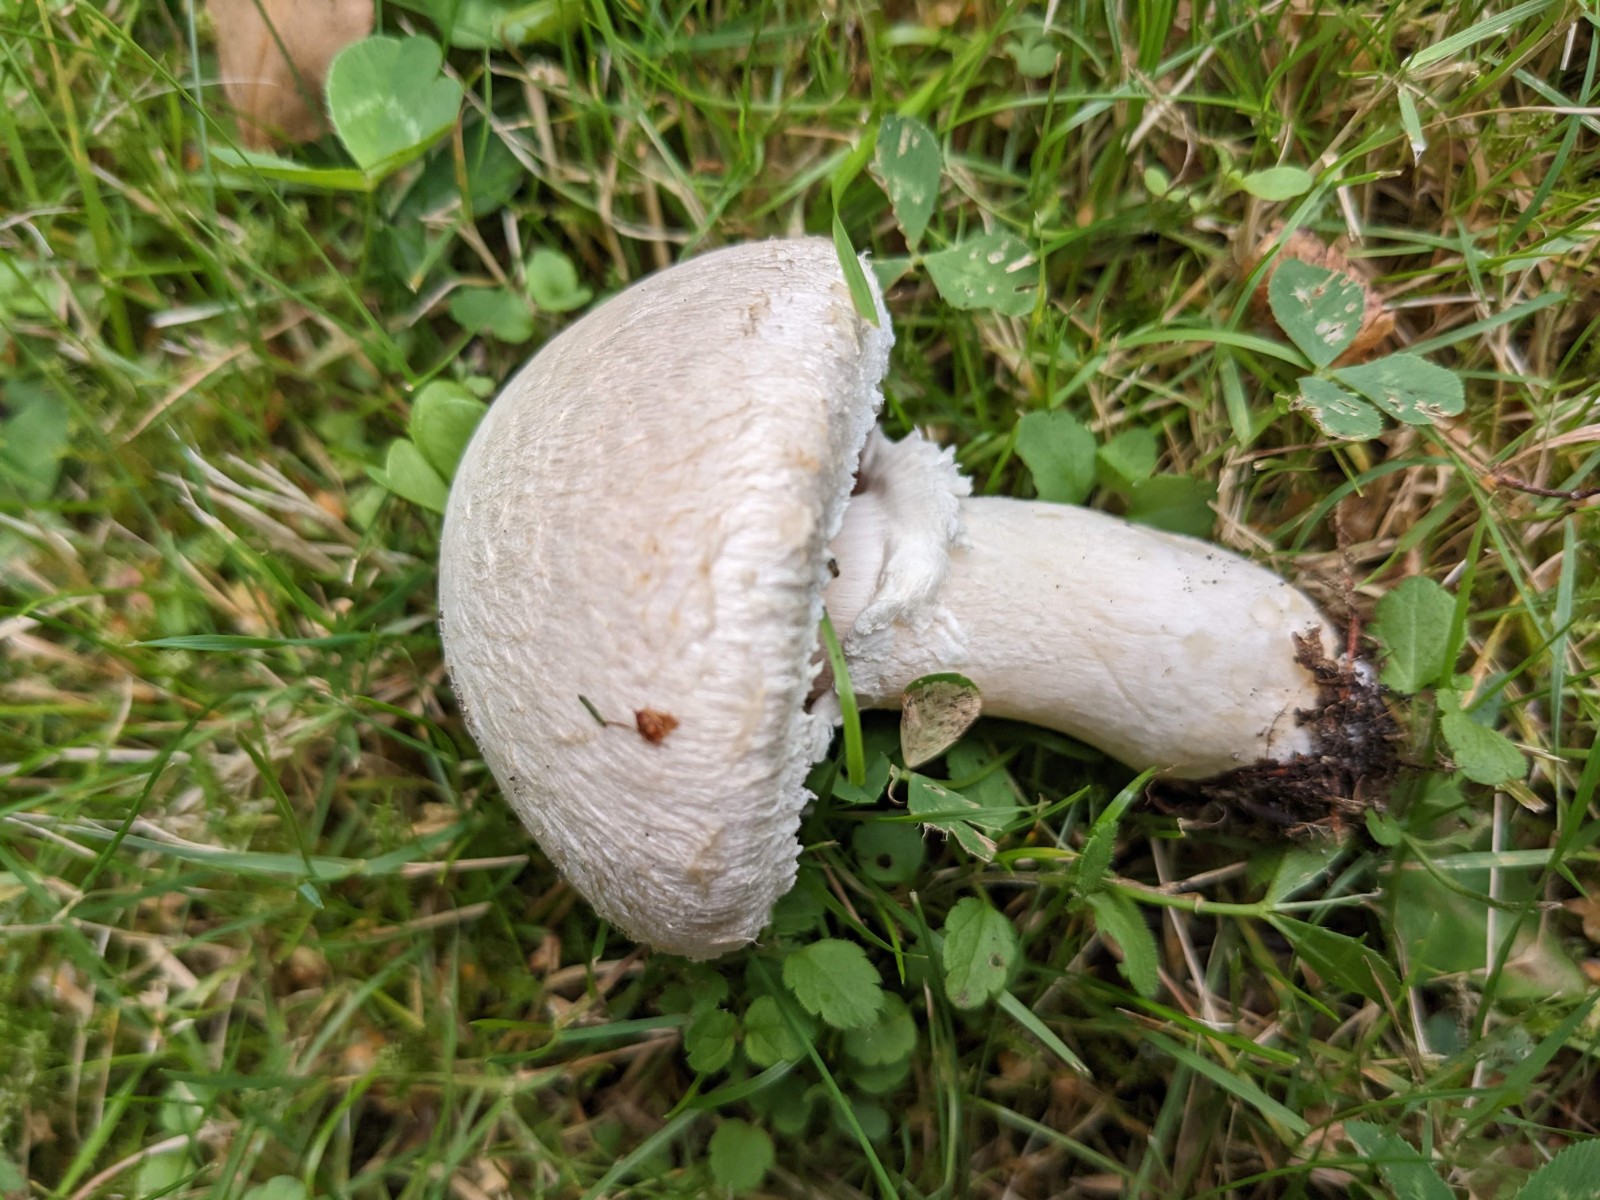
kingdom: Fungi
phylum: Basidiomycota
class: Agaricomycetes
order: Agaricales
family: Agaricaceae
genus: Agaricus
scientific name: Agaricus campestris
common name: mark-champignon
